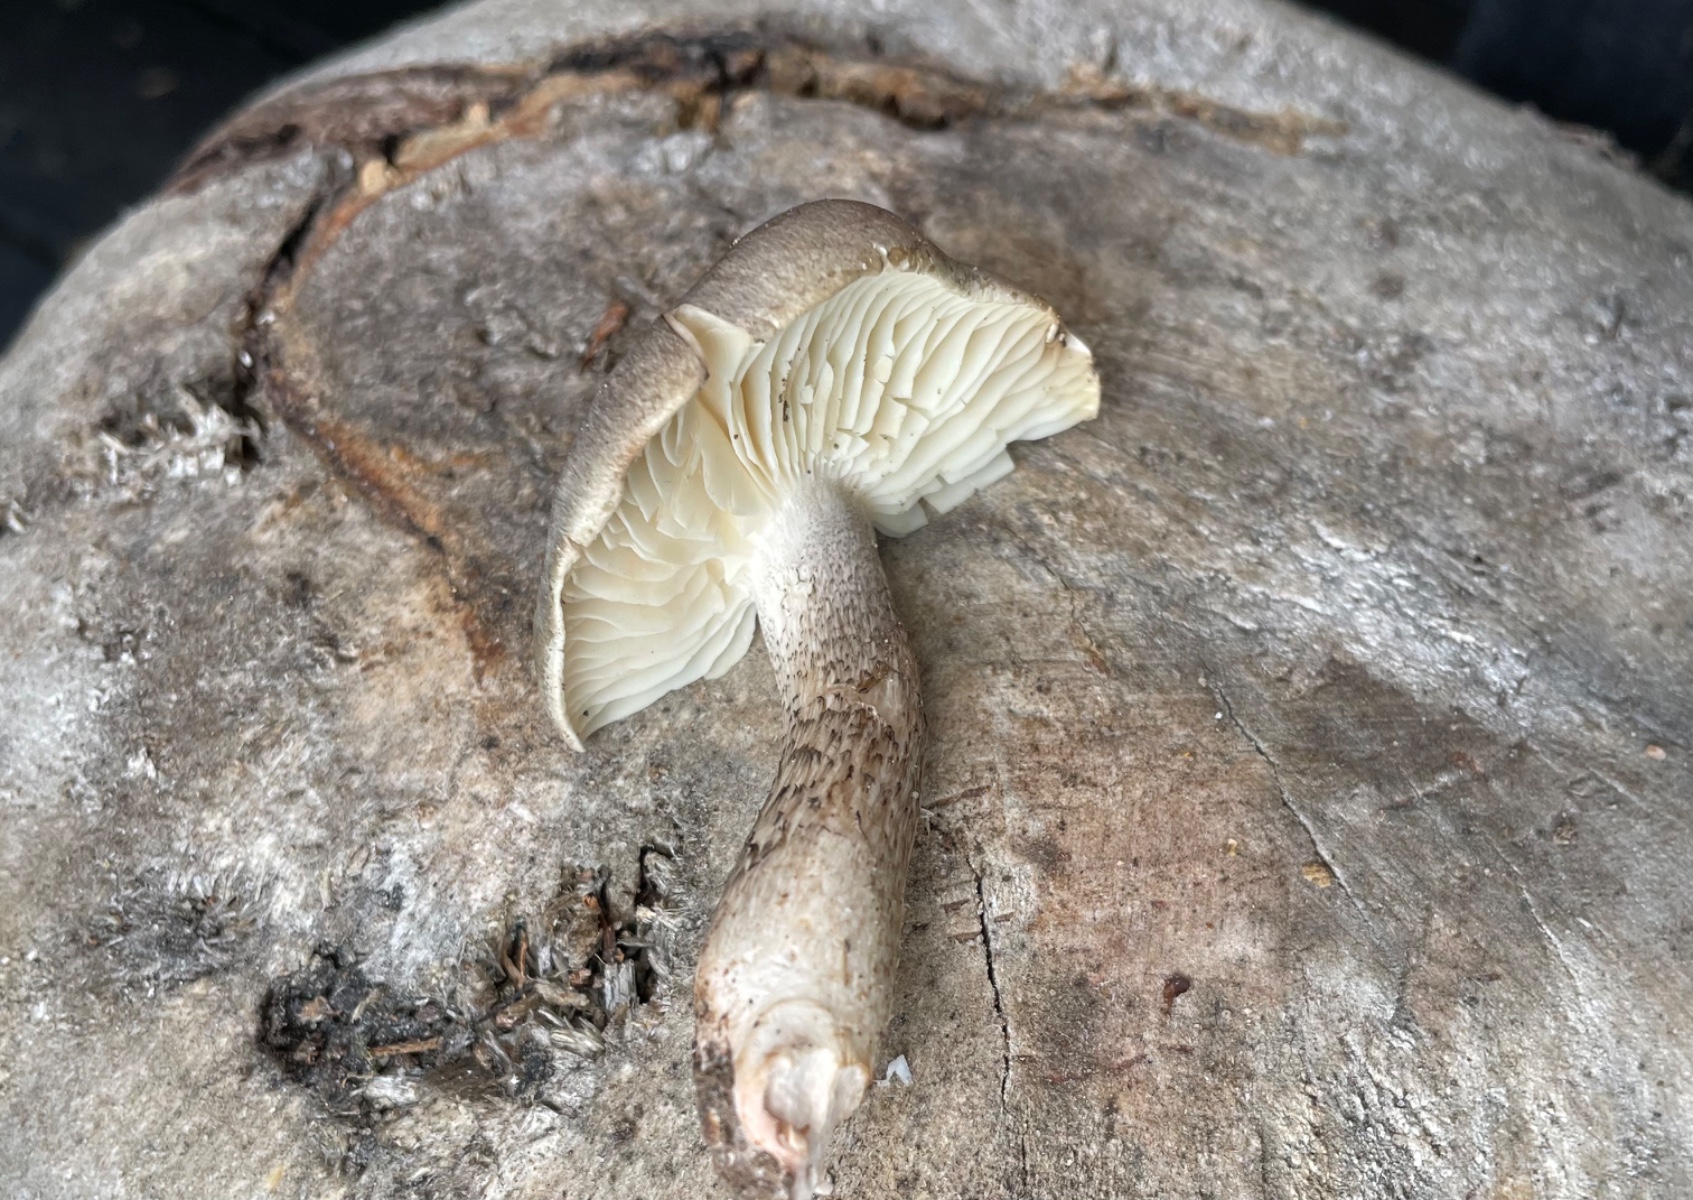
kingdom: Fungi
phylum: Basidiomycota
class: Agaricomycetes
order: Agaricales
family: Tricholomataceae
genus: Tricholoma
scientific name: Tricholoma saponaceum
